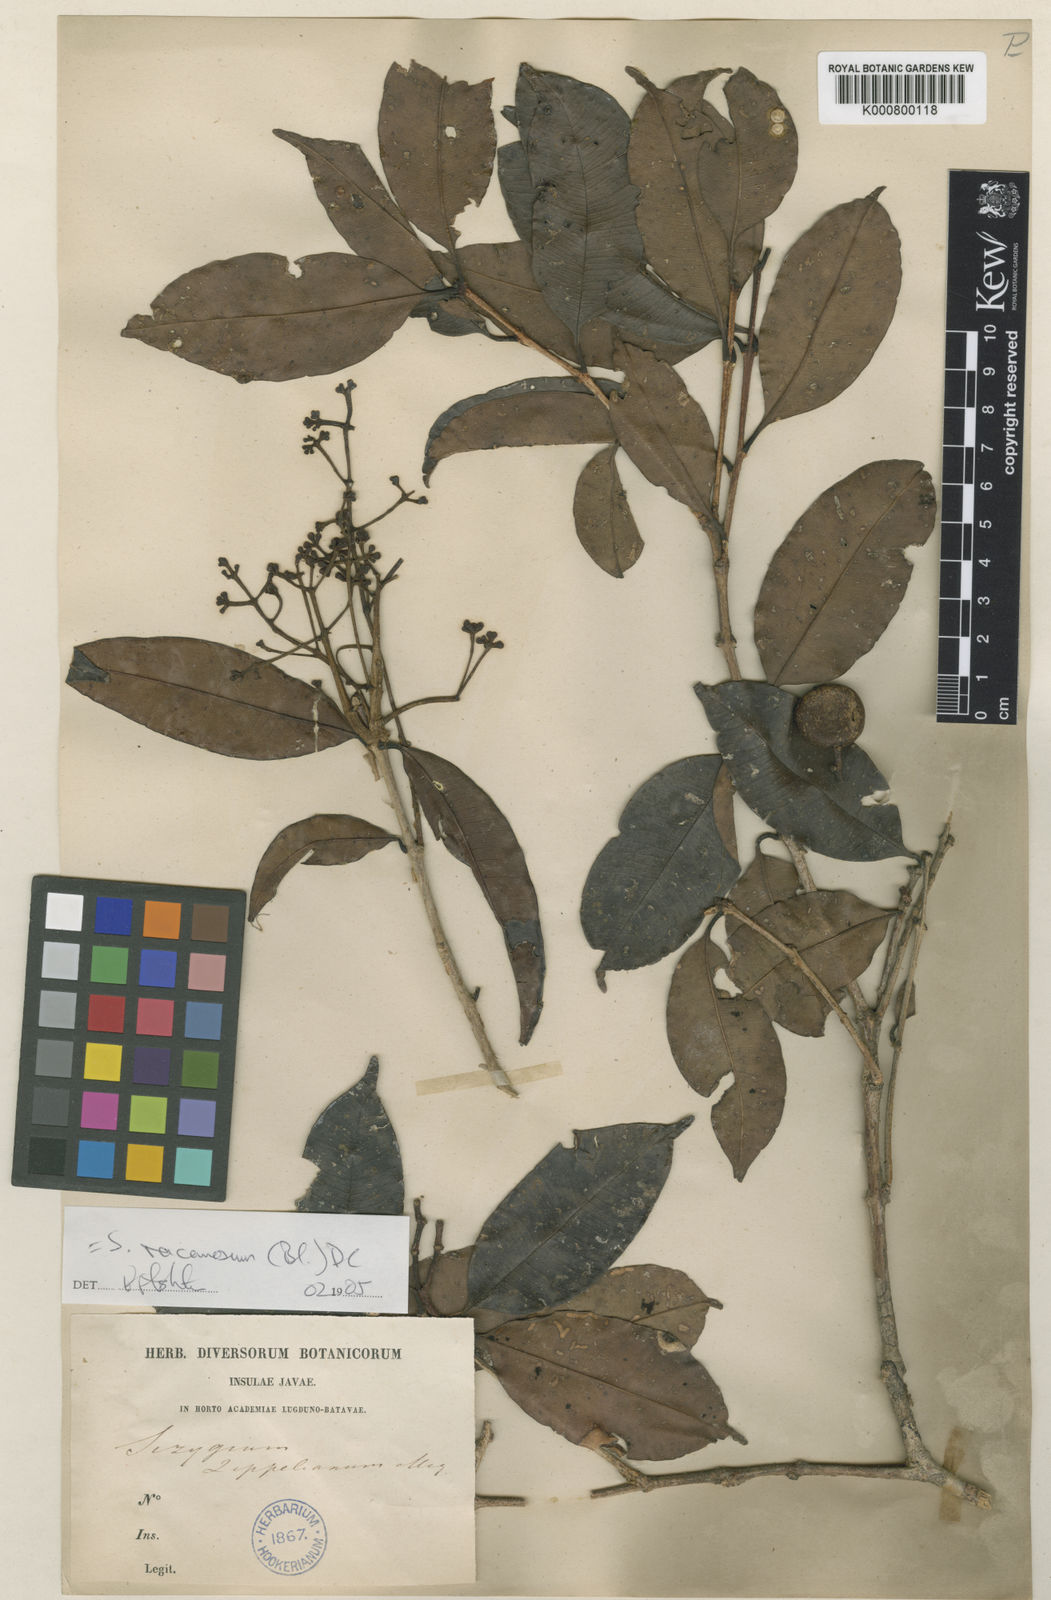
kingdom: Plantae
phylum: Tracheophyta
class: Magnoliopsida
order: Myrtales
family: Myrtaceae
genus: Syzygium
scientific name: Syzygium racemosum
